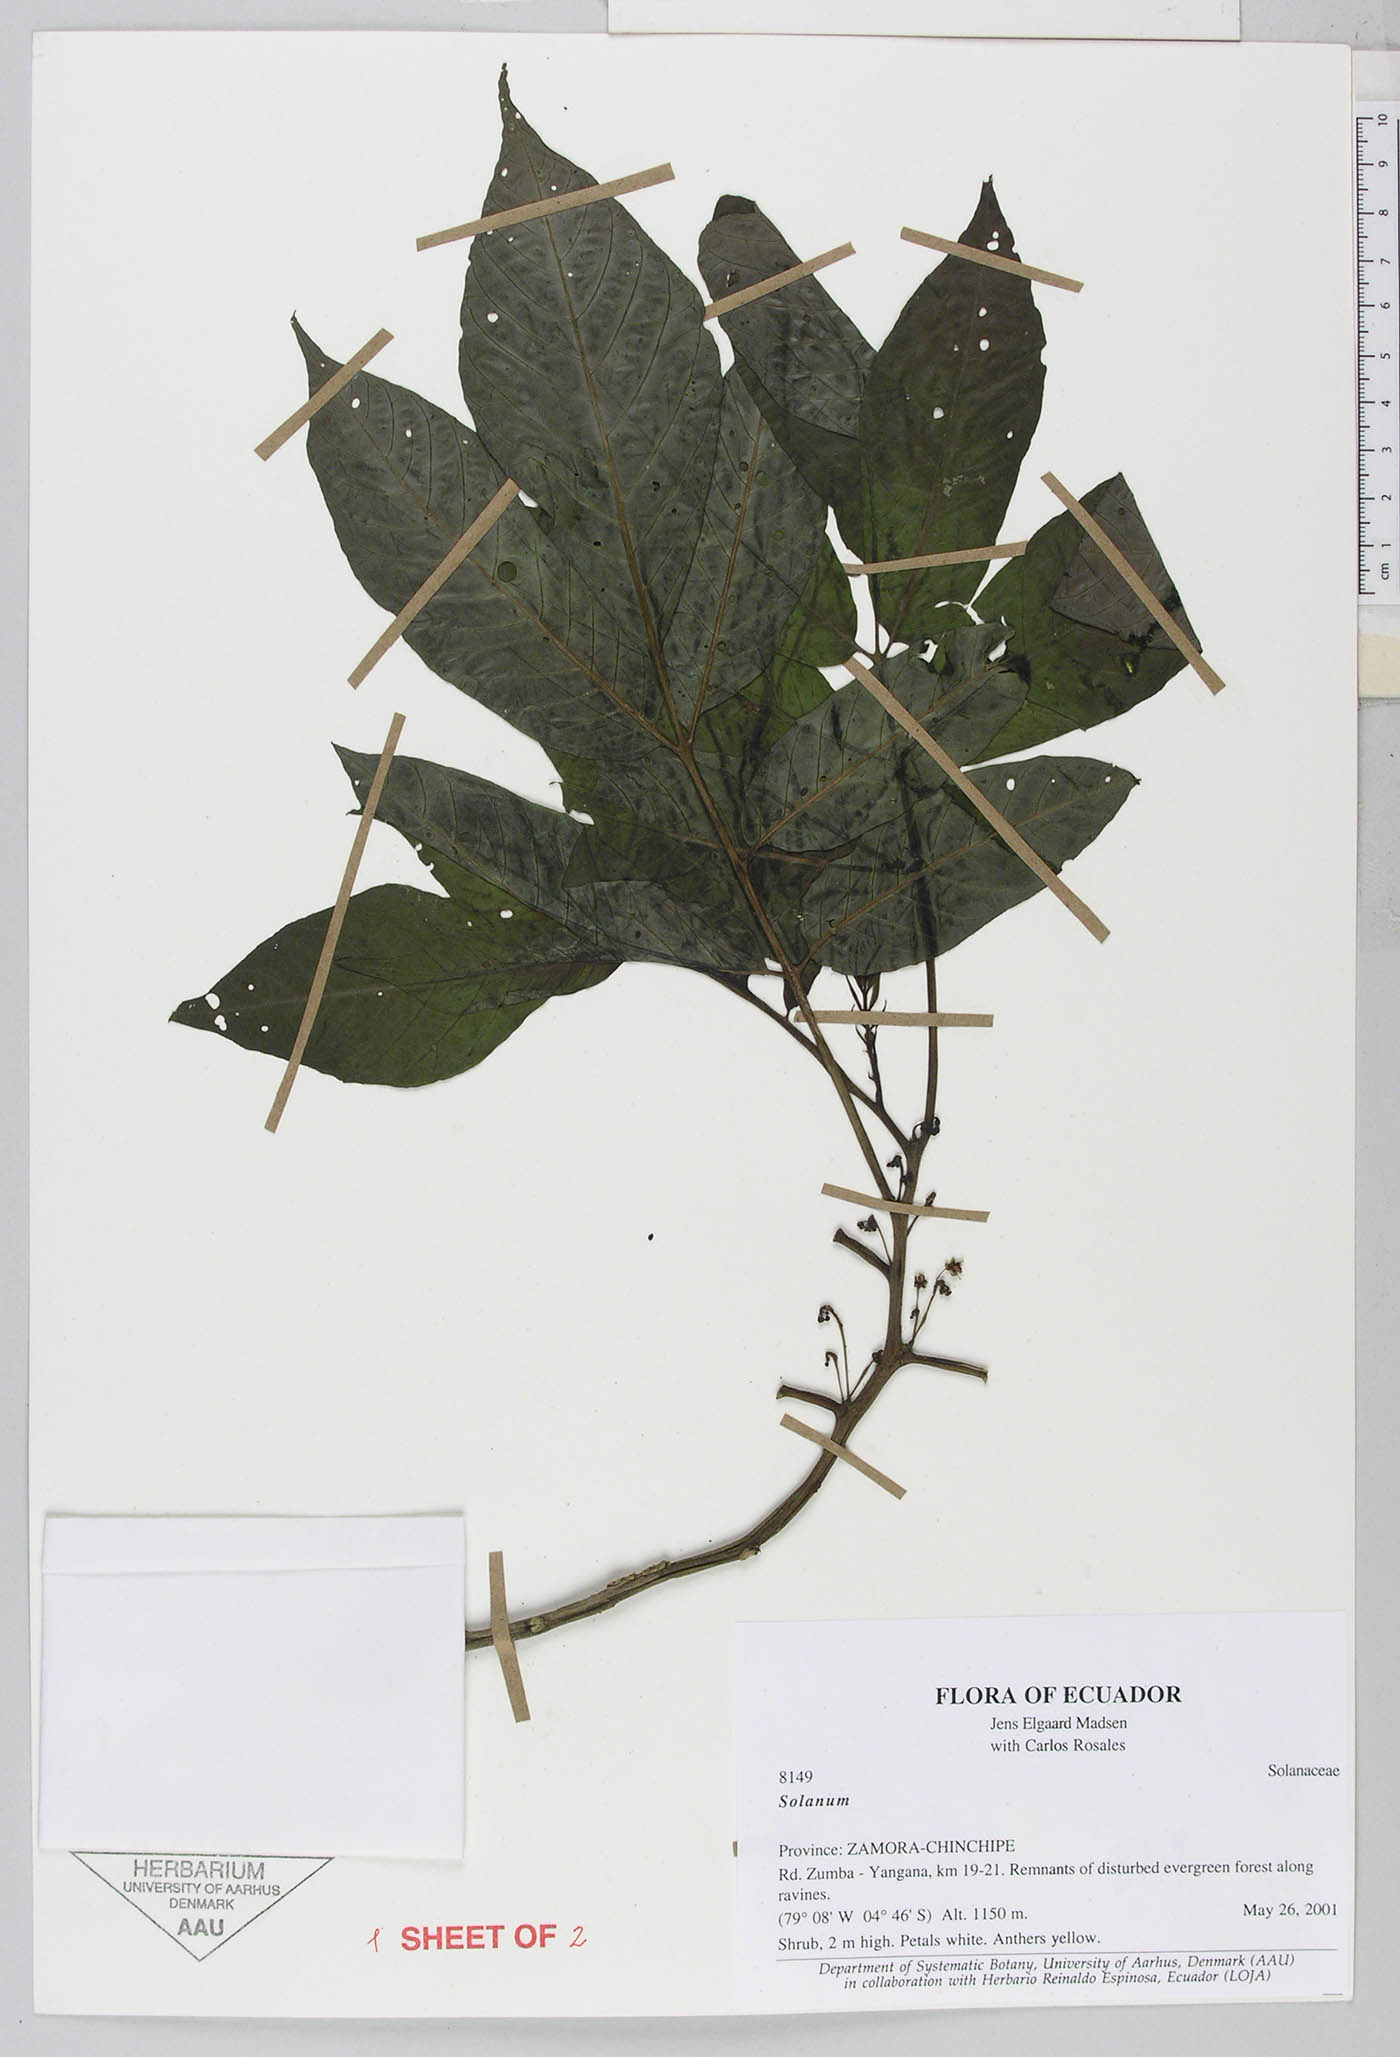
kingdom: Plantae
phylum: Tracheophyta
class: Magnoliopsida
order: Solanales
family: Solanaceae
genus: Solanum
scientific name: Solanum mite
